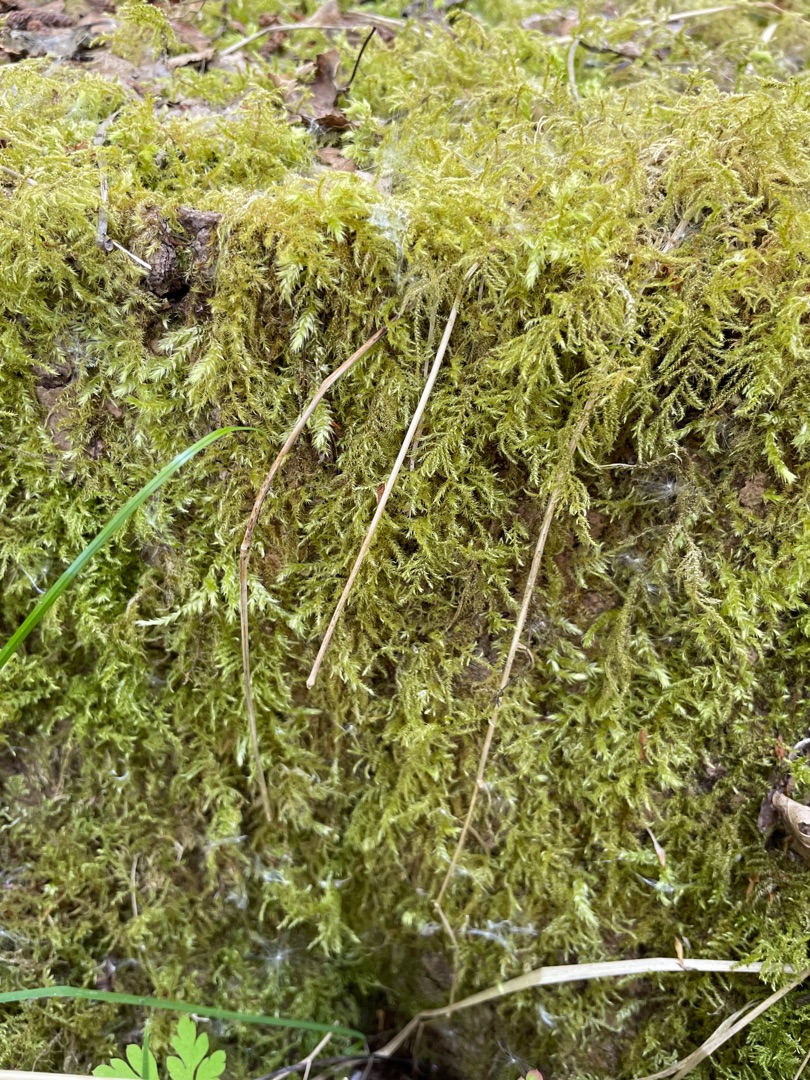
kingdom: Plantae
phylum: Bryophyta
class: Bryopsida
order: Hypnales
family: Brachytheciaceae
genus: Kindbergia
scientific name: Kindbergia praelonga
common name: Forskelligbladet vortetand
